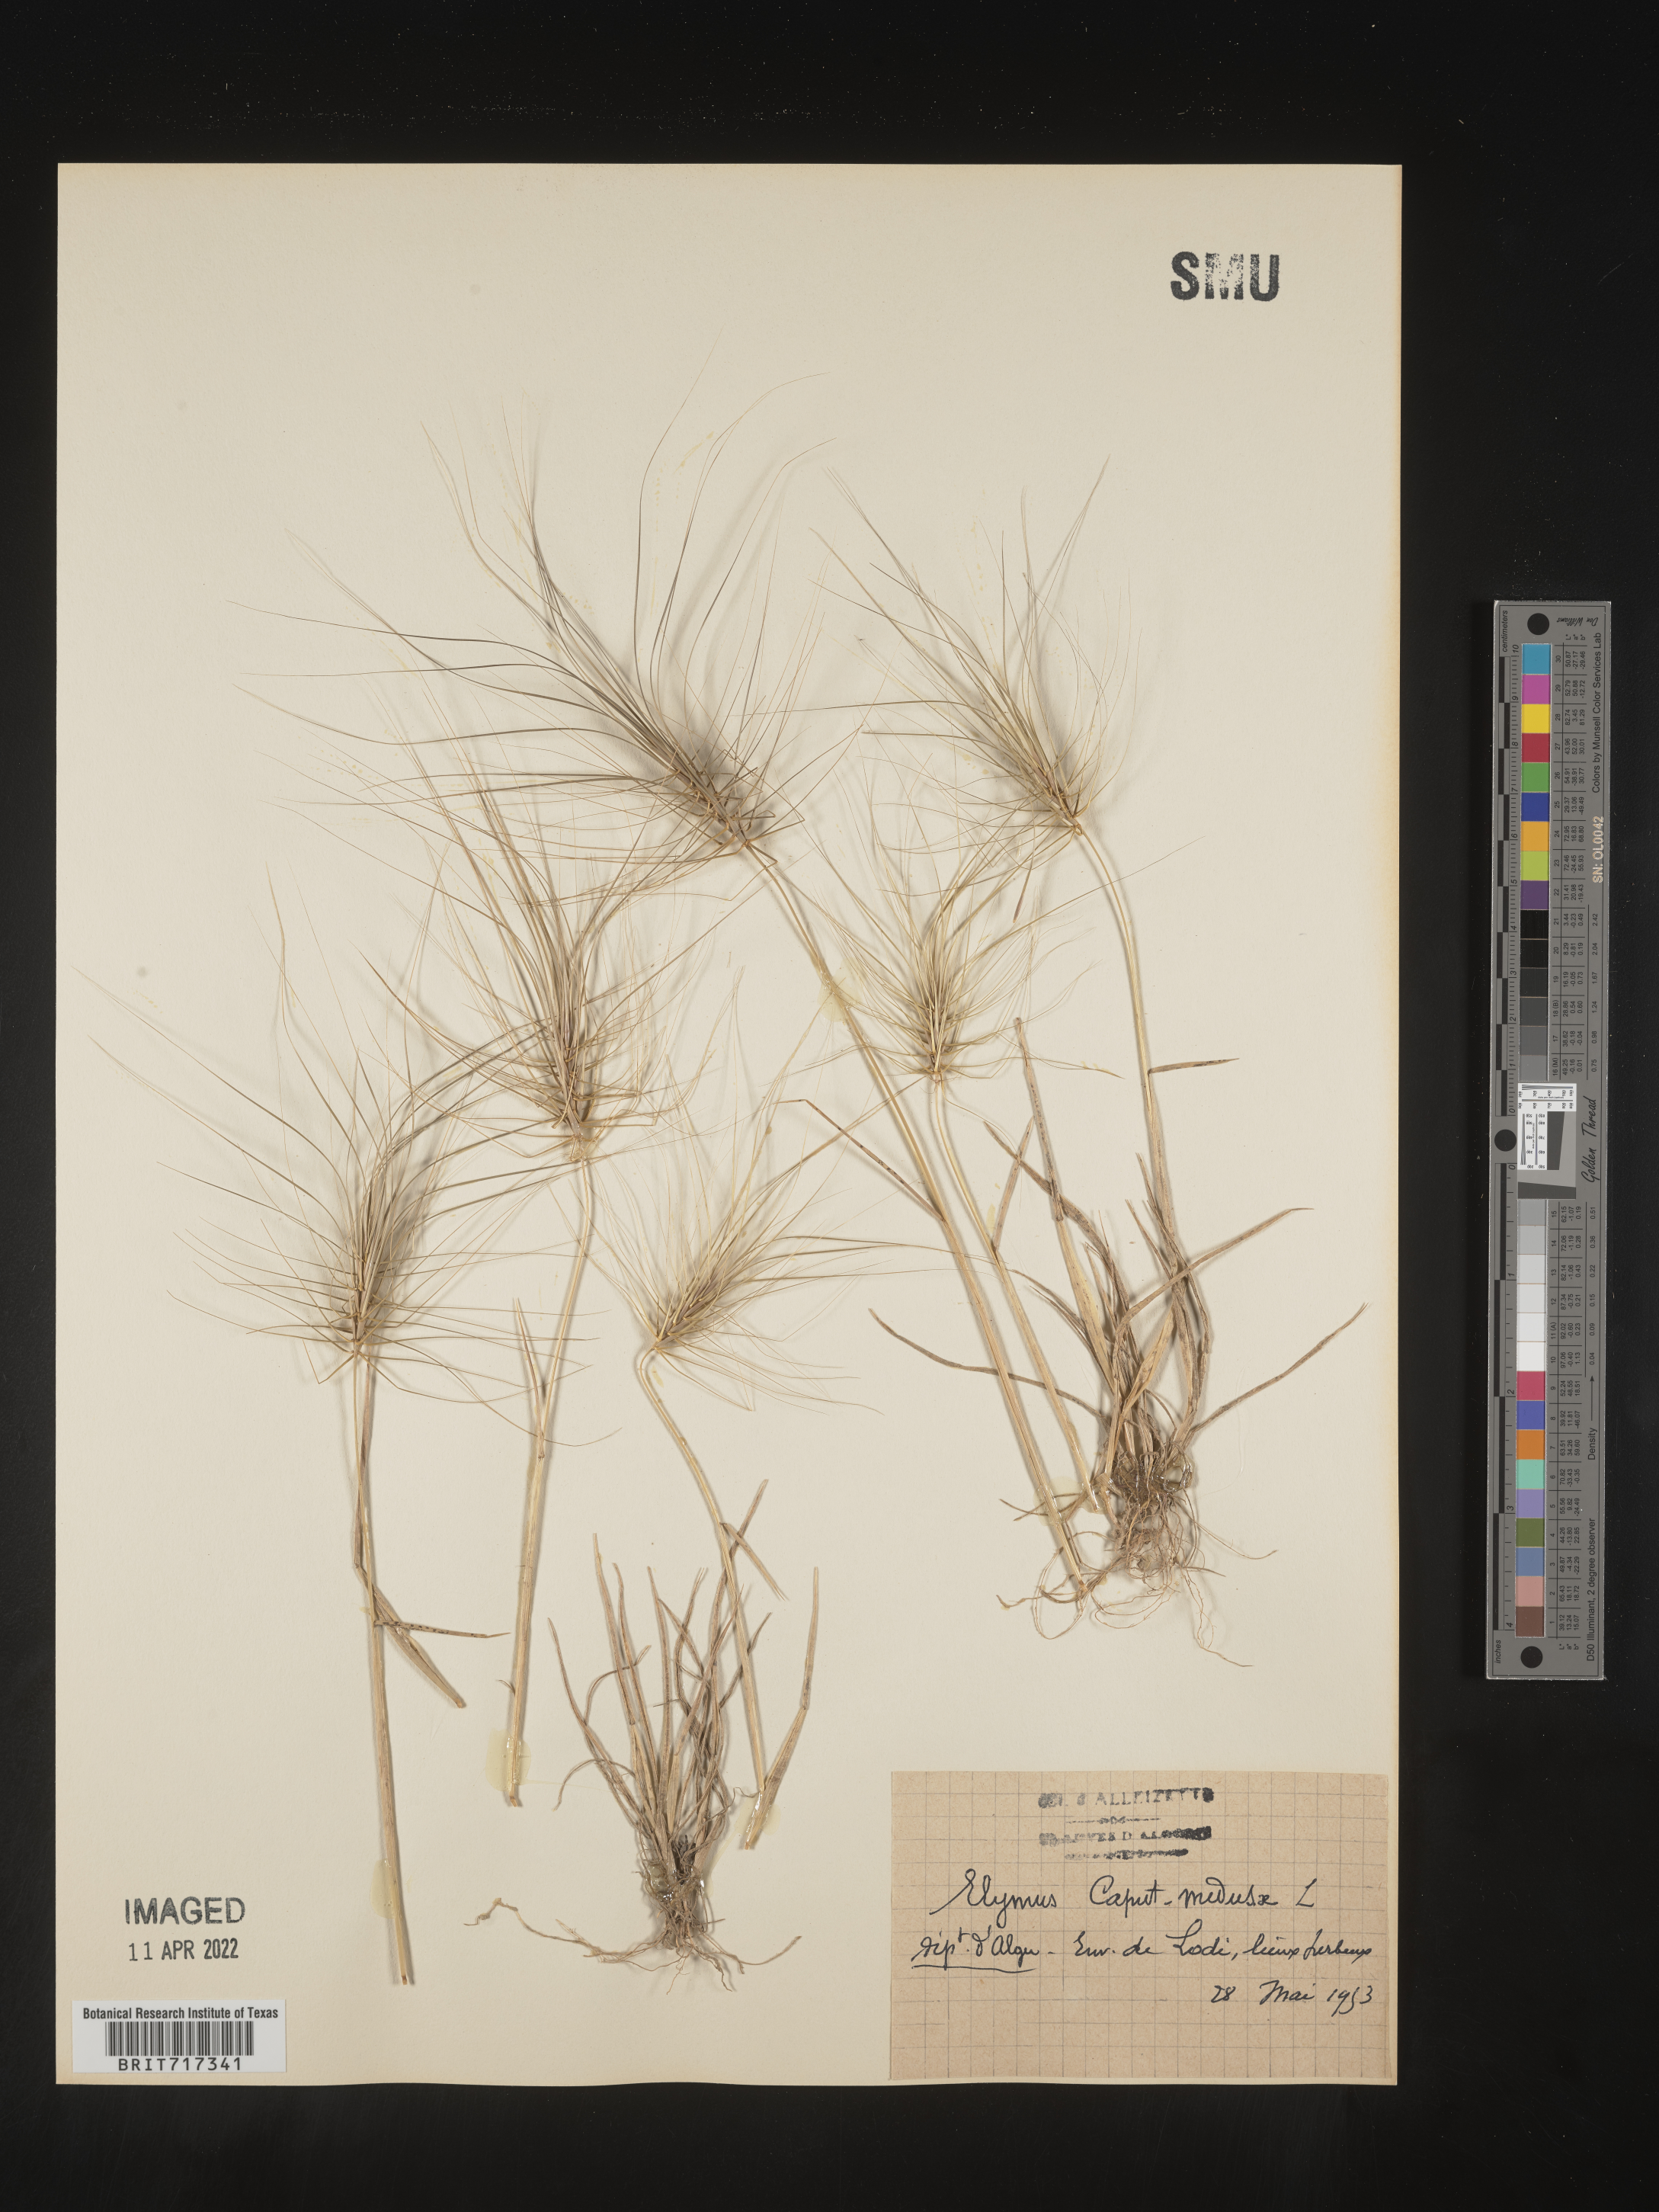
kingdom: Plantae
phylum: Tracheophyta
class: Liliopsida
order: Poales
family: Poaceae
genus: Elymus
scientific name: Elymus
